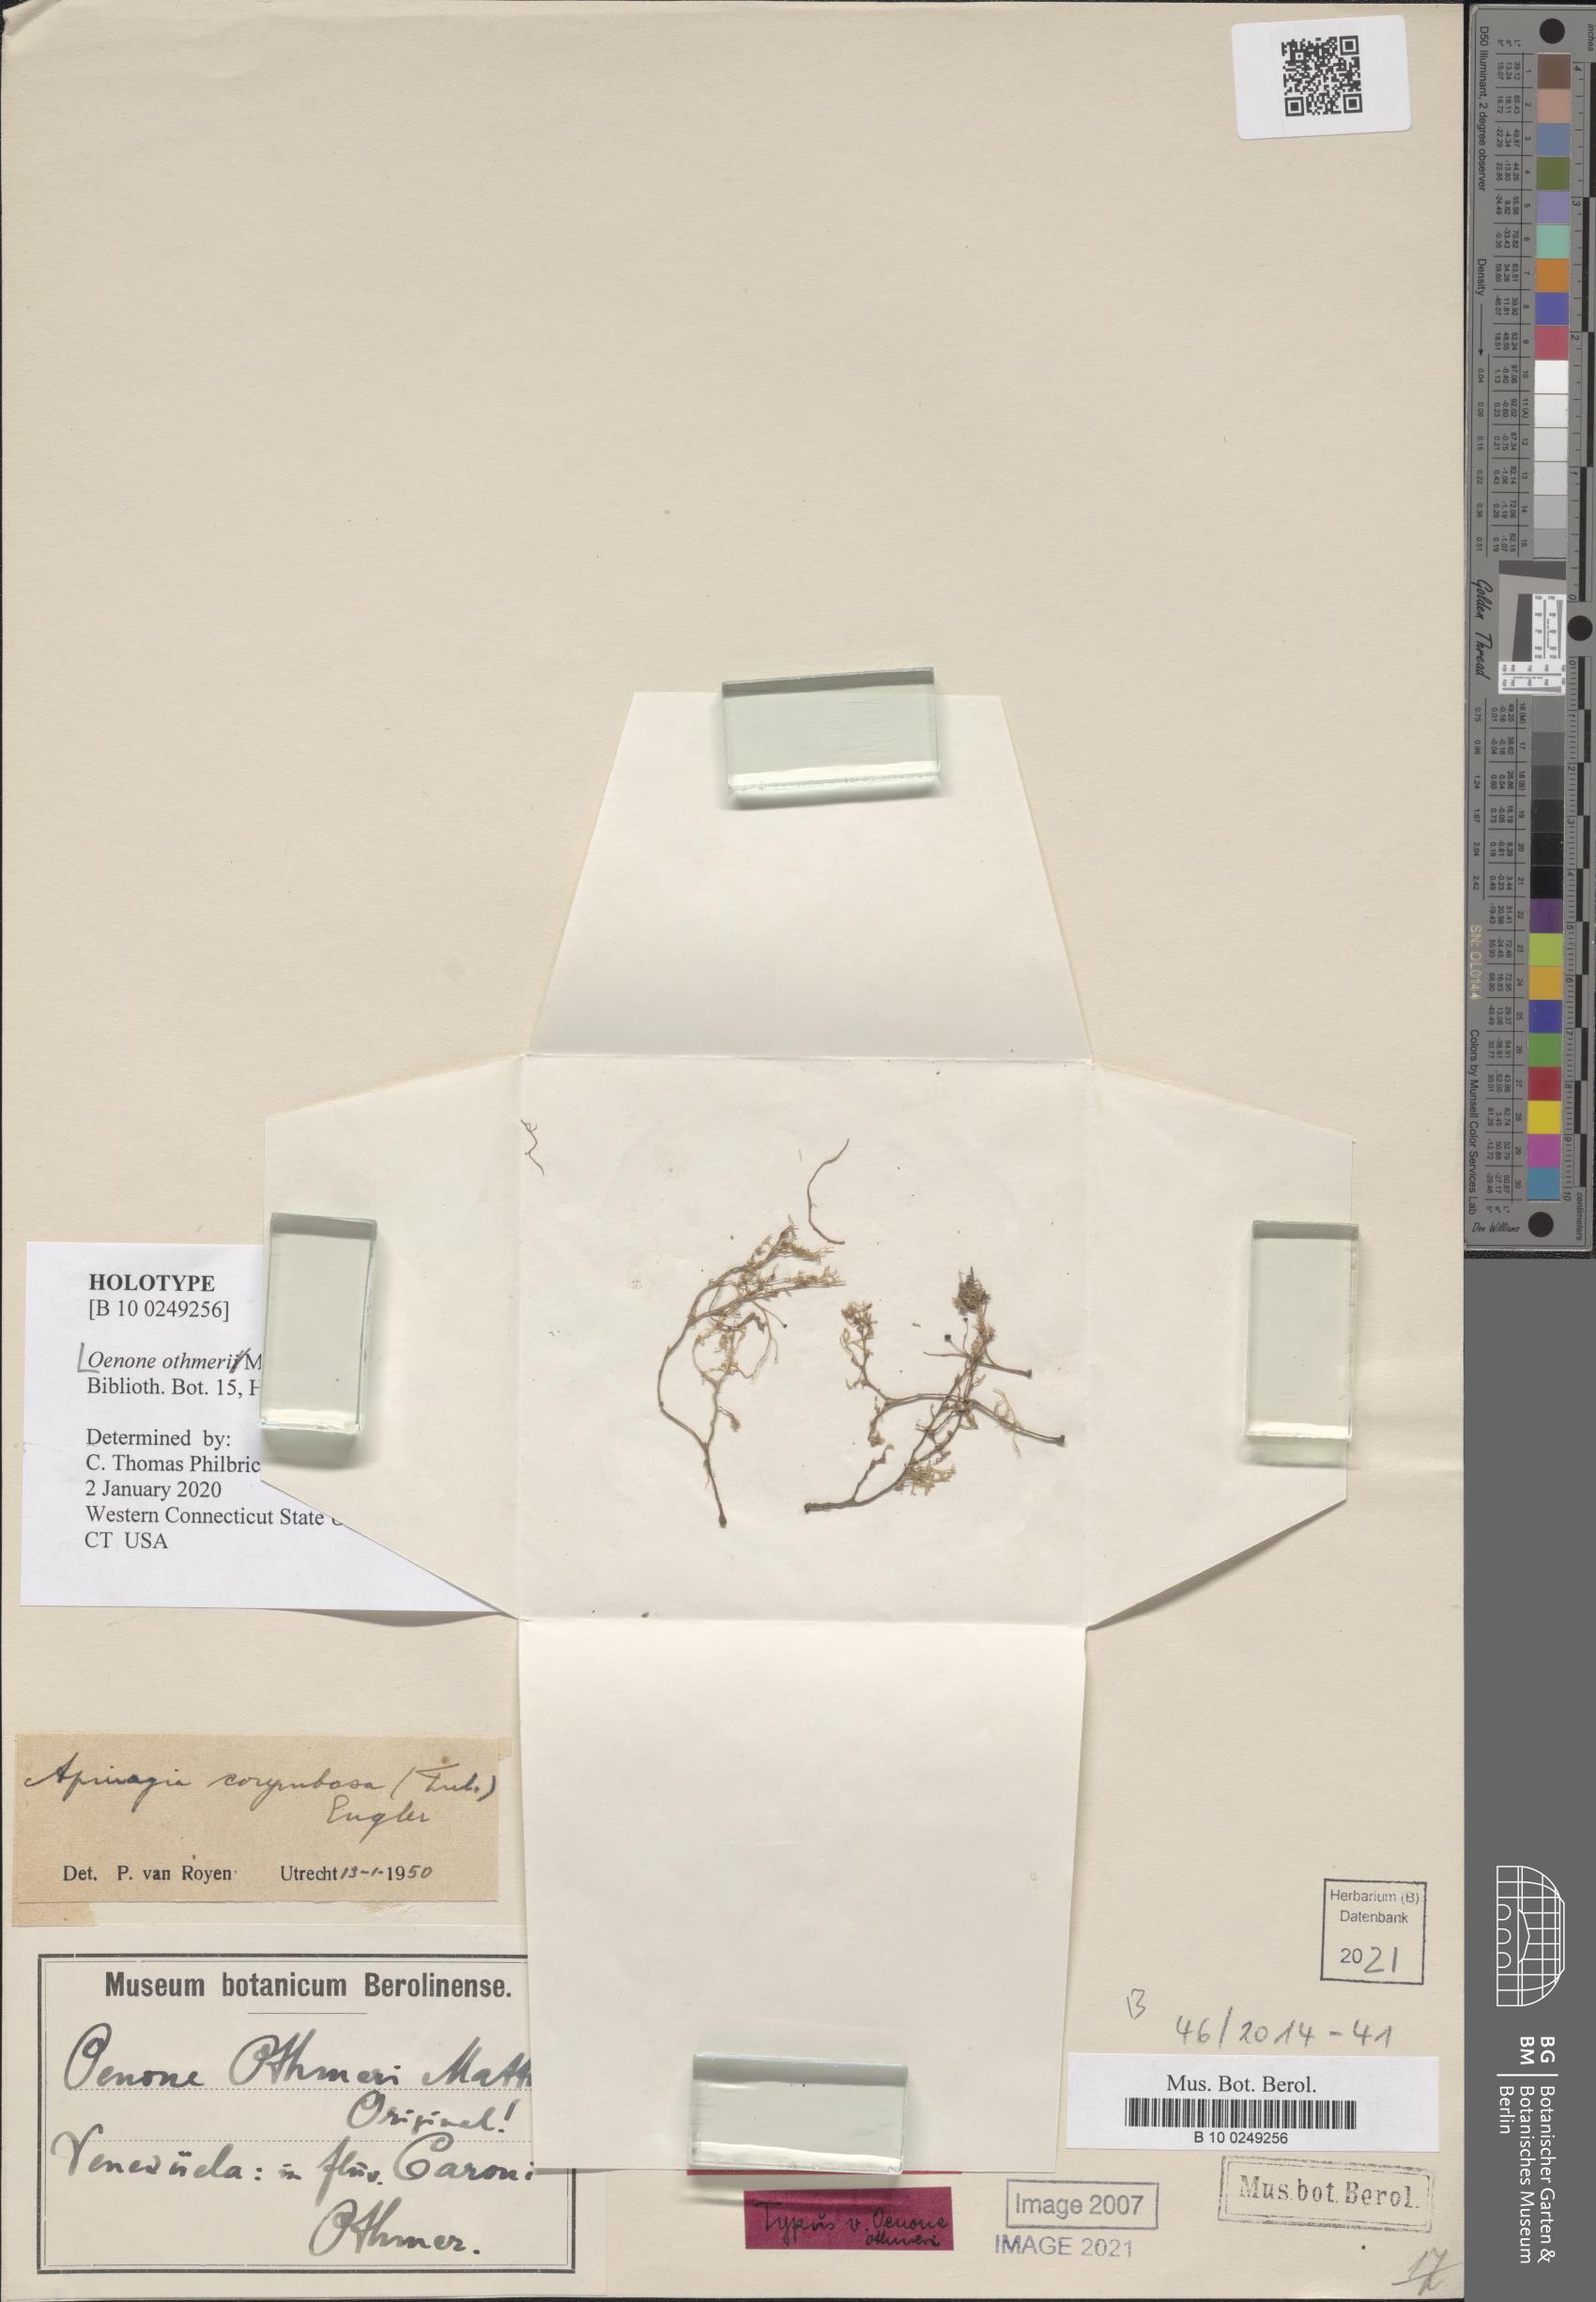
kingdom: Plantae
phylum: Tracheophyta
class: Magnoliopsida
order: Malpighiales
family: Podostemaceae
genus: Apinagia
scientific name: Apinagia corymbosa
